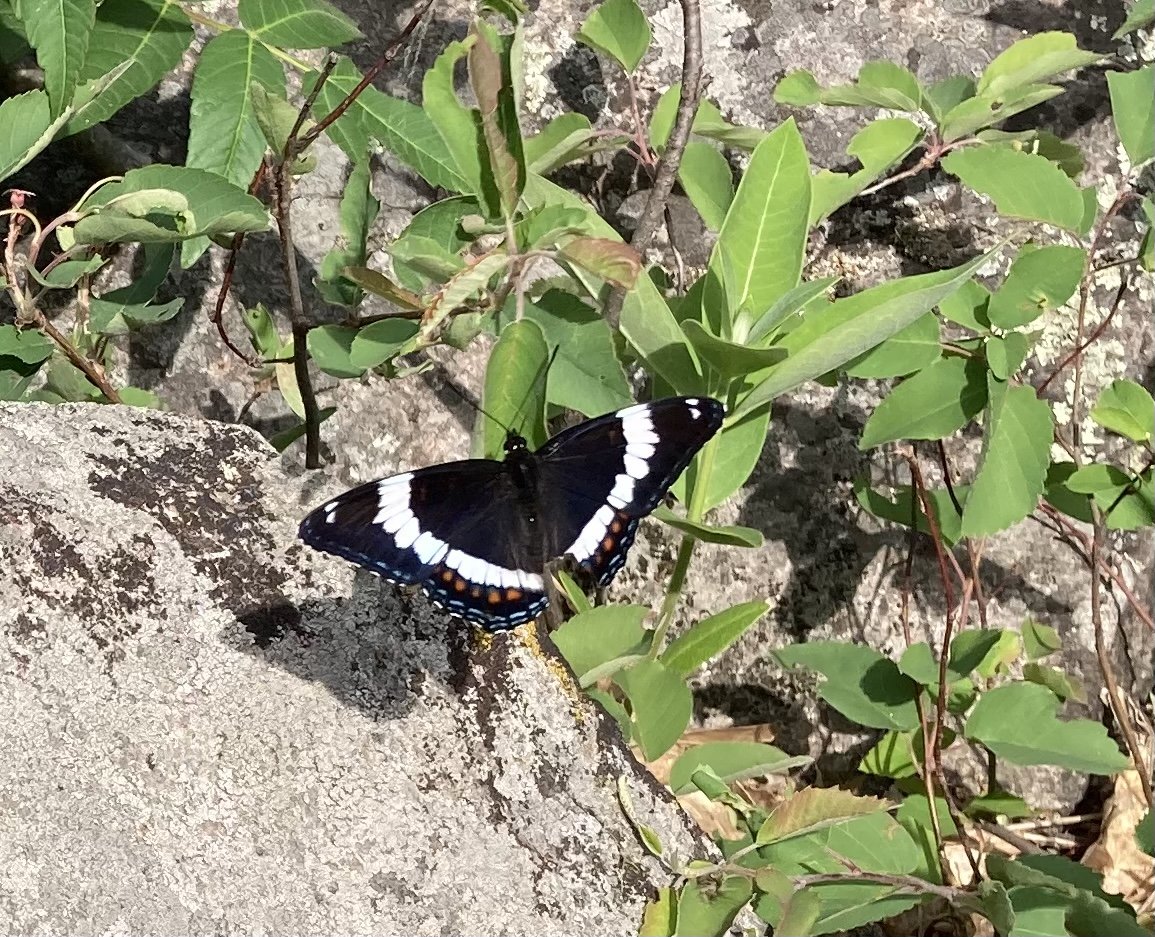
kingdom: Animalia
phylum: Arthropoda
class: Insecta
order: Lepidoptera
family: Nymphalidae
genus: Limenitis
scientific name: Limenitis arthemis
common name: Red-spotted Admiral
